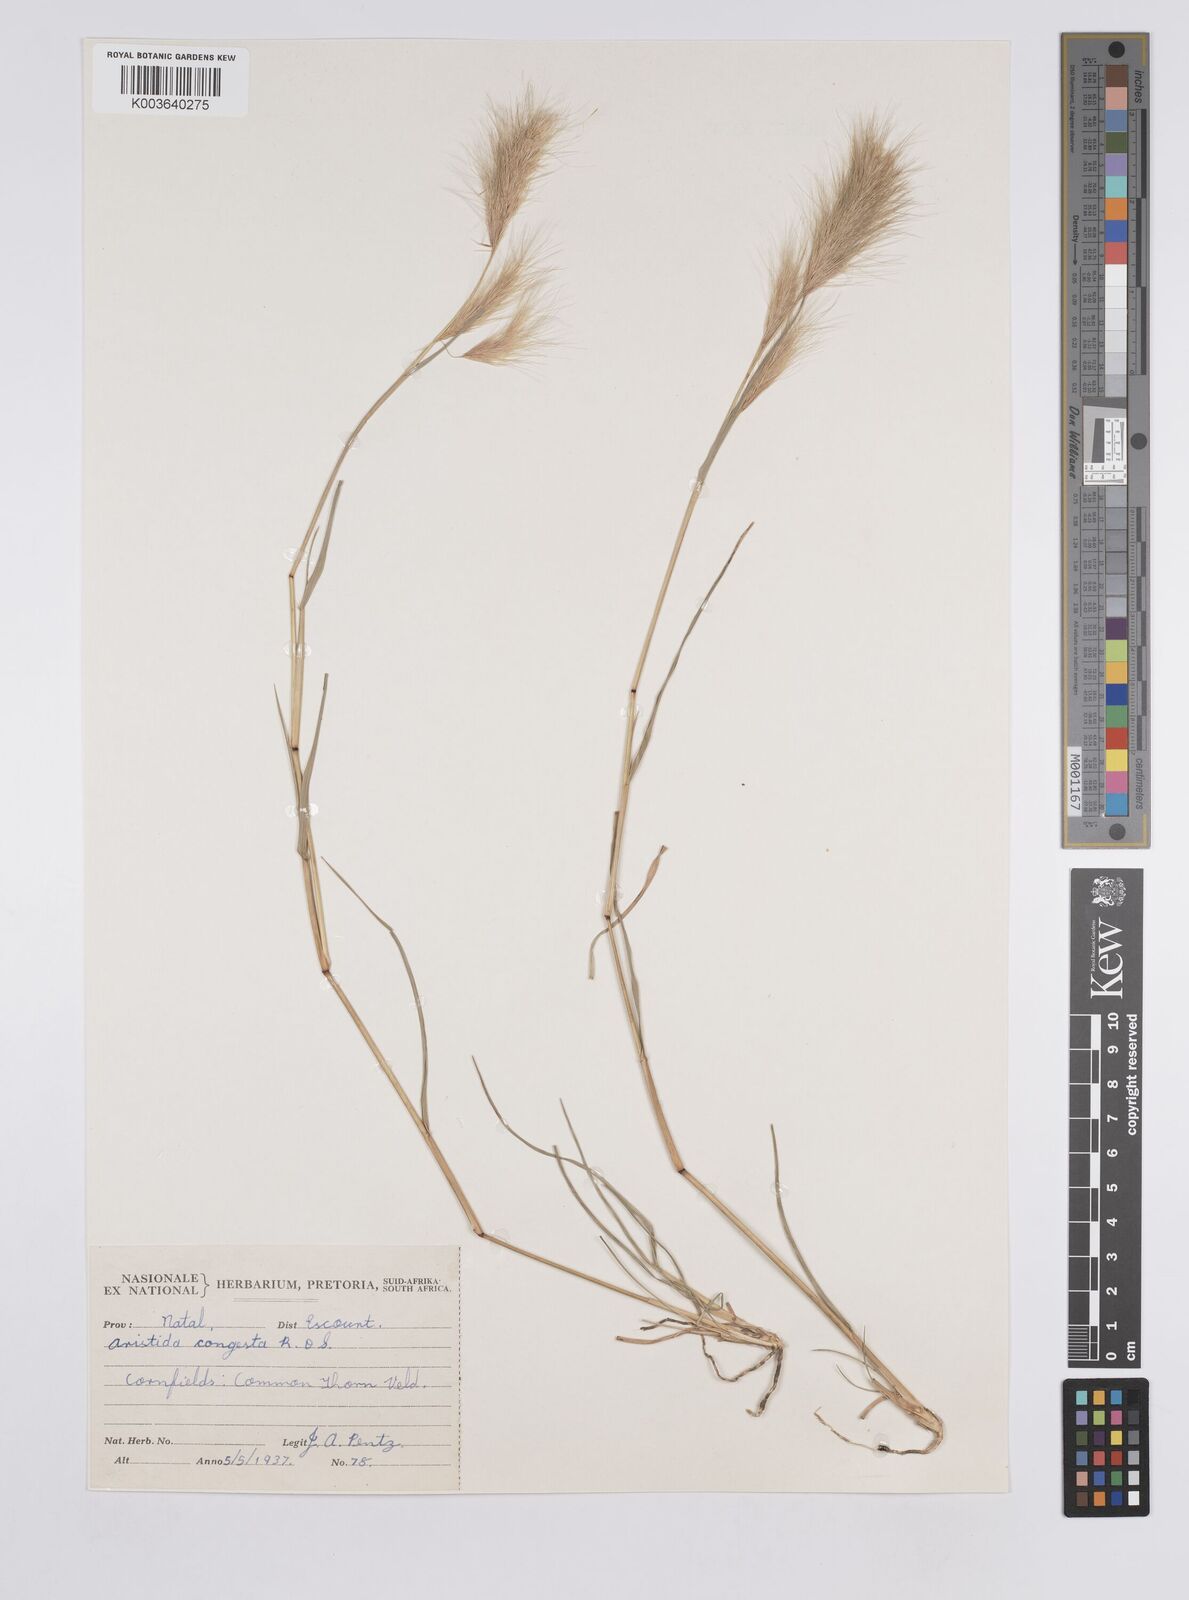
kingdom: Plantae
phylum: Tracheophyta
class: Liliopsida
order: Poales
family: Poaceae
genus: Aristida
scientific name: Aristida congesta
